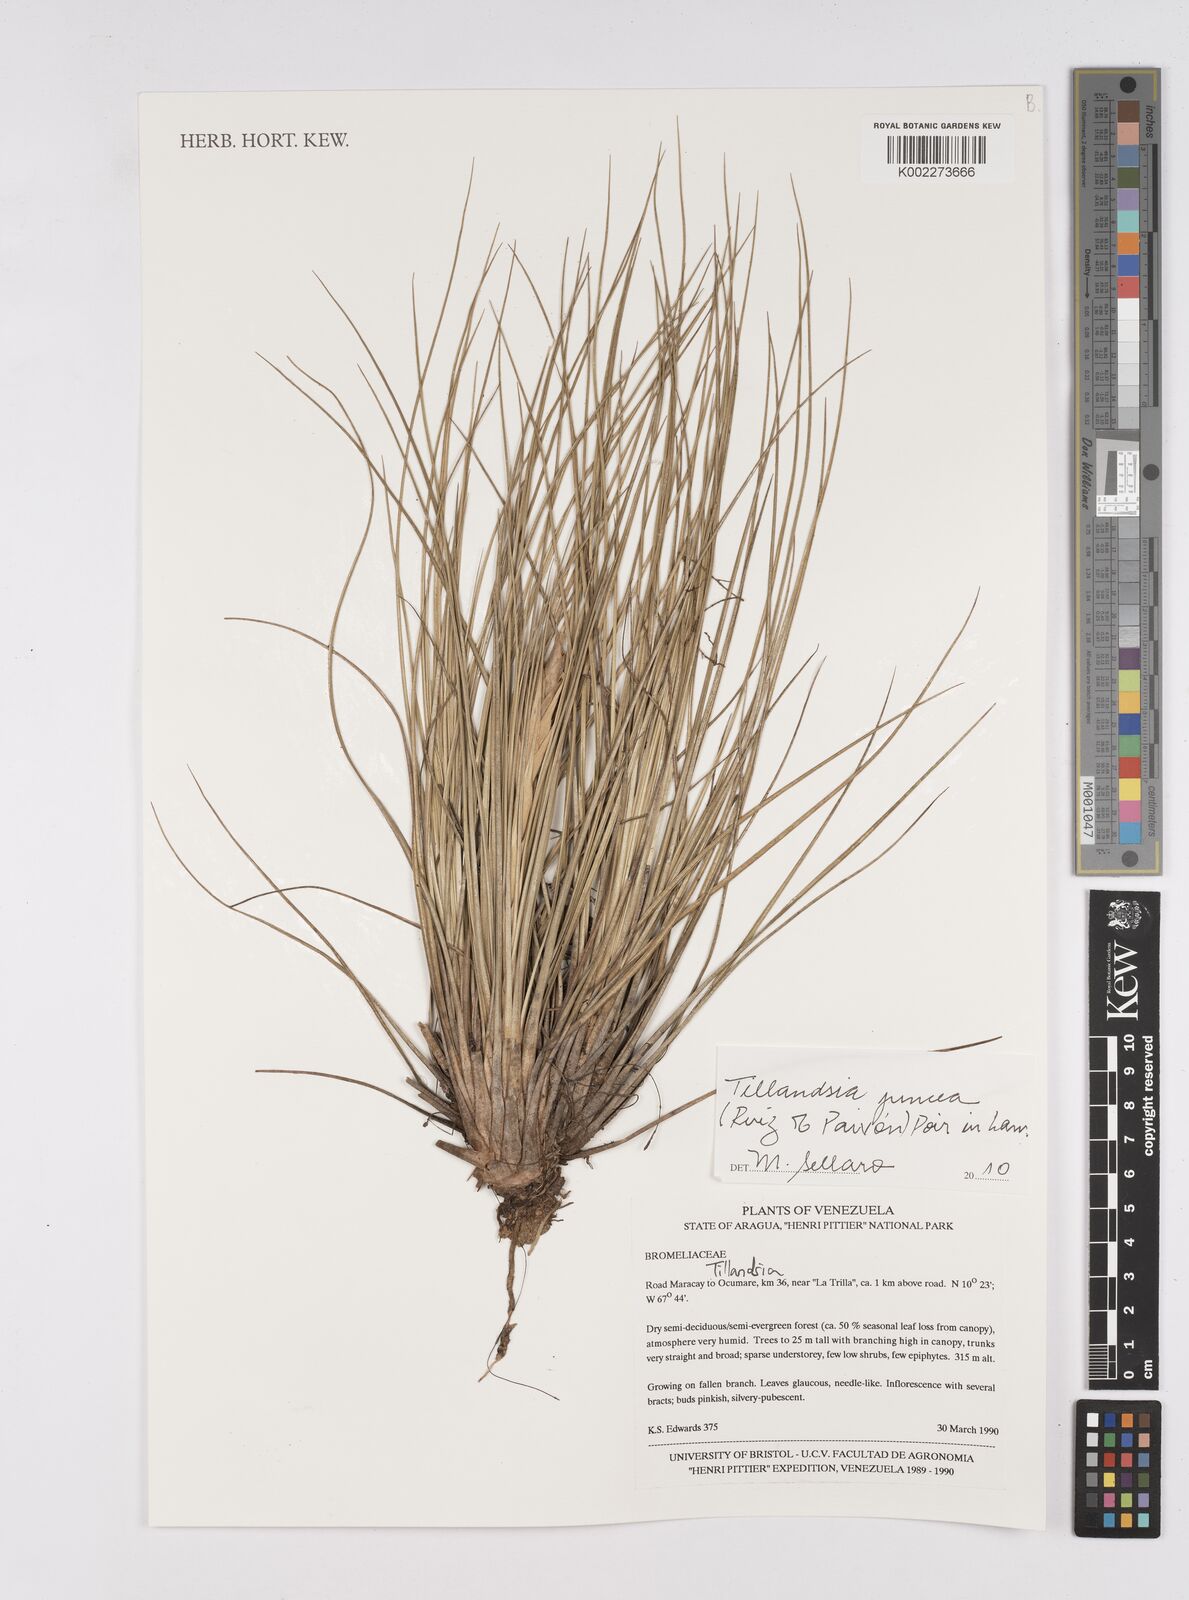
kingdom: Plantae
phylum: Tracheophyta
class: Liliopsida
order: Poales
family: Bromeliaceae
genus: Tillandsia
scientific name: Tillandsia juncea
